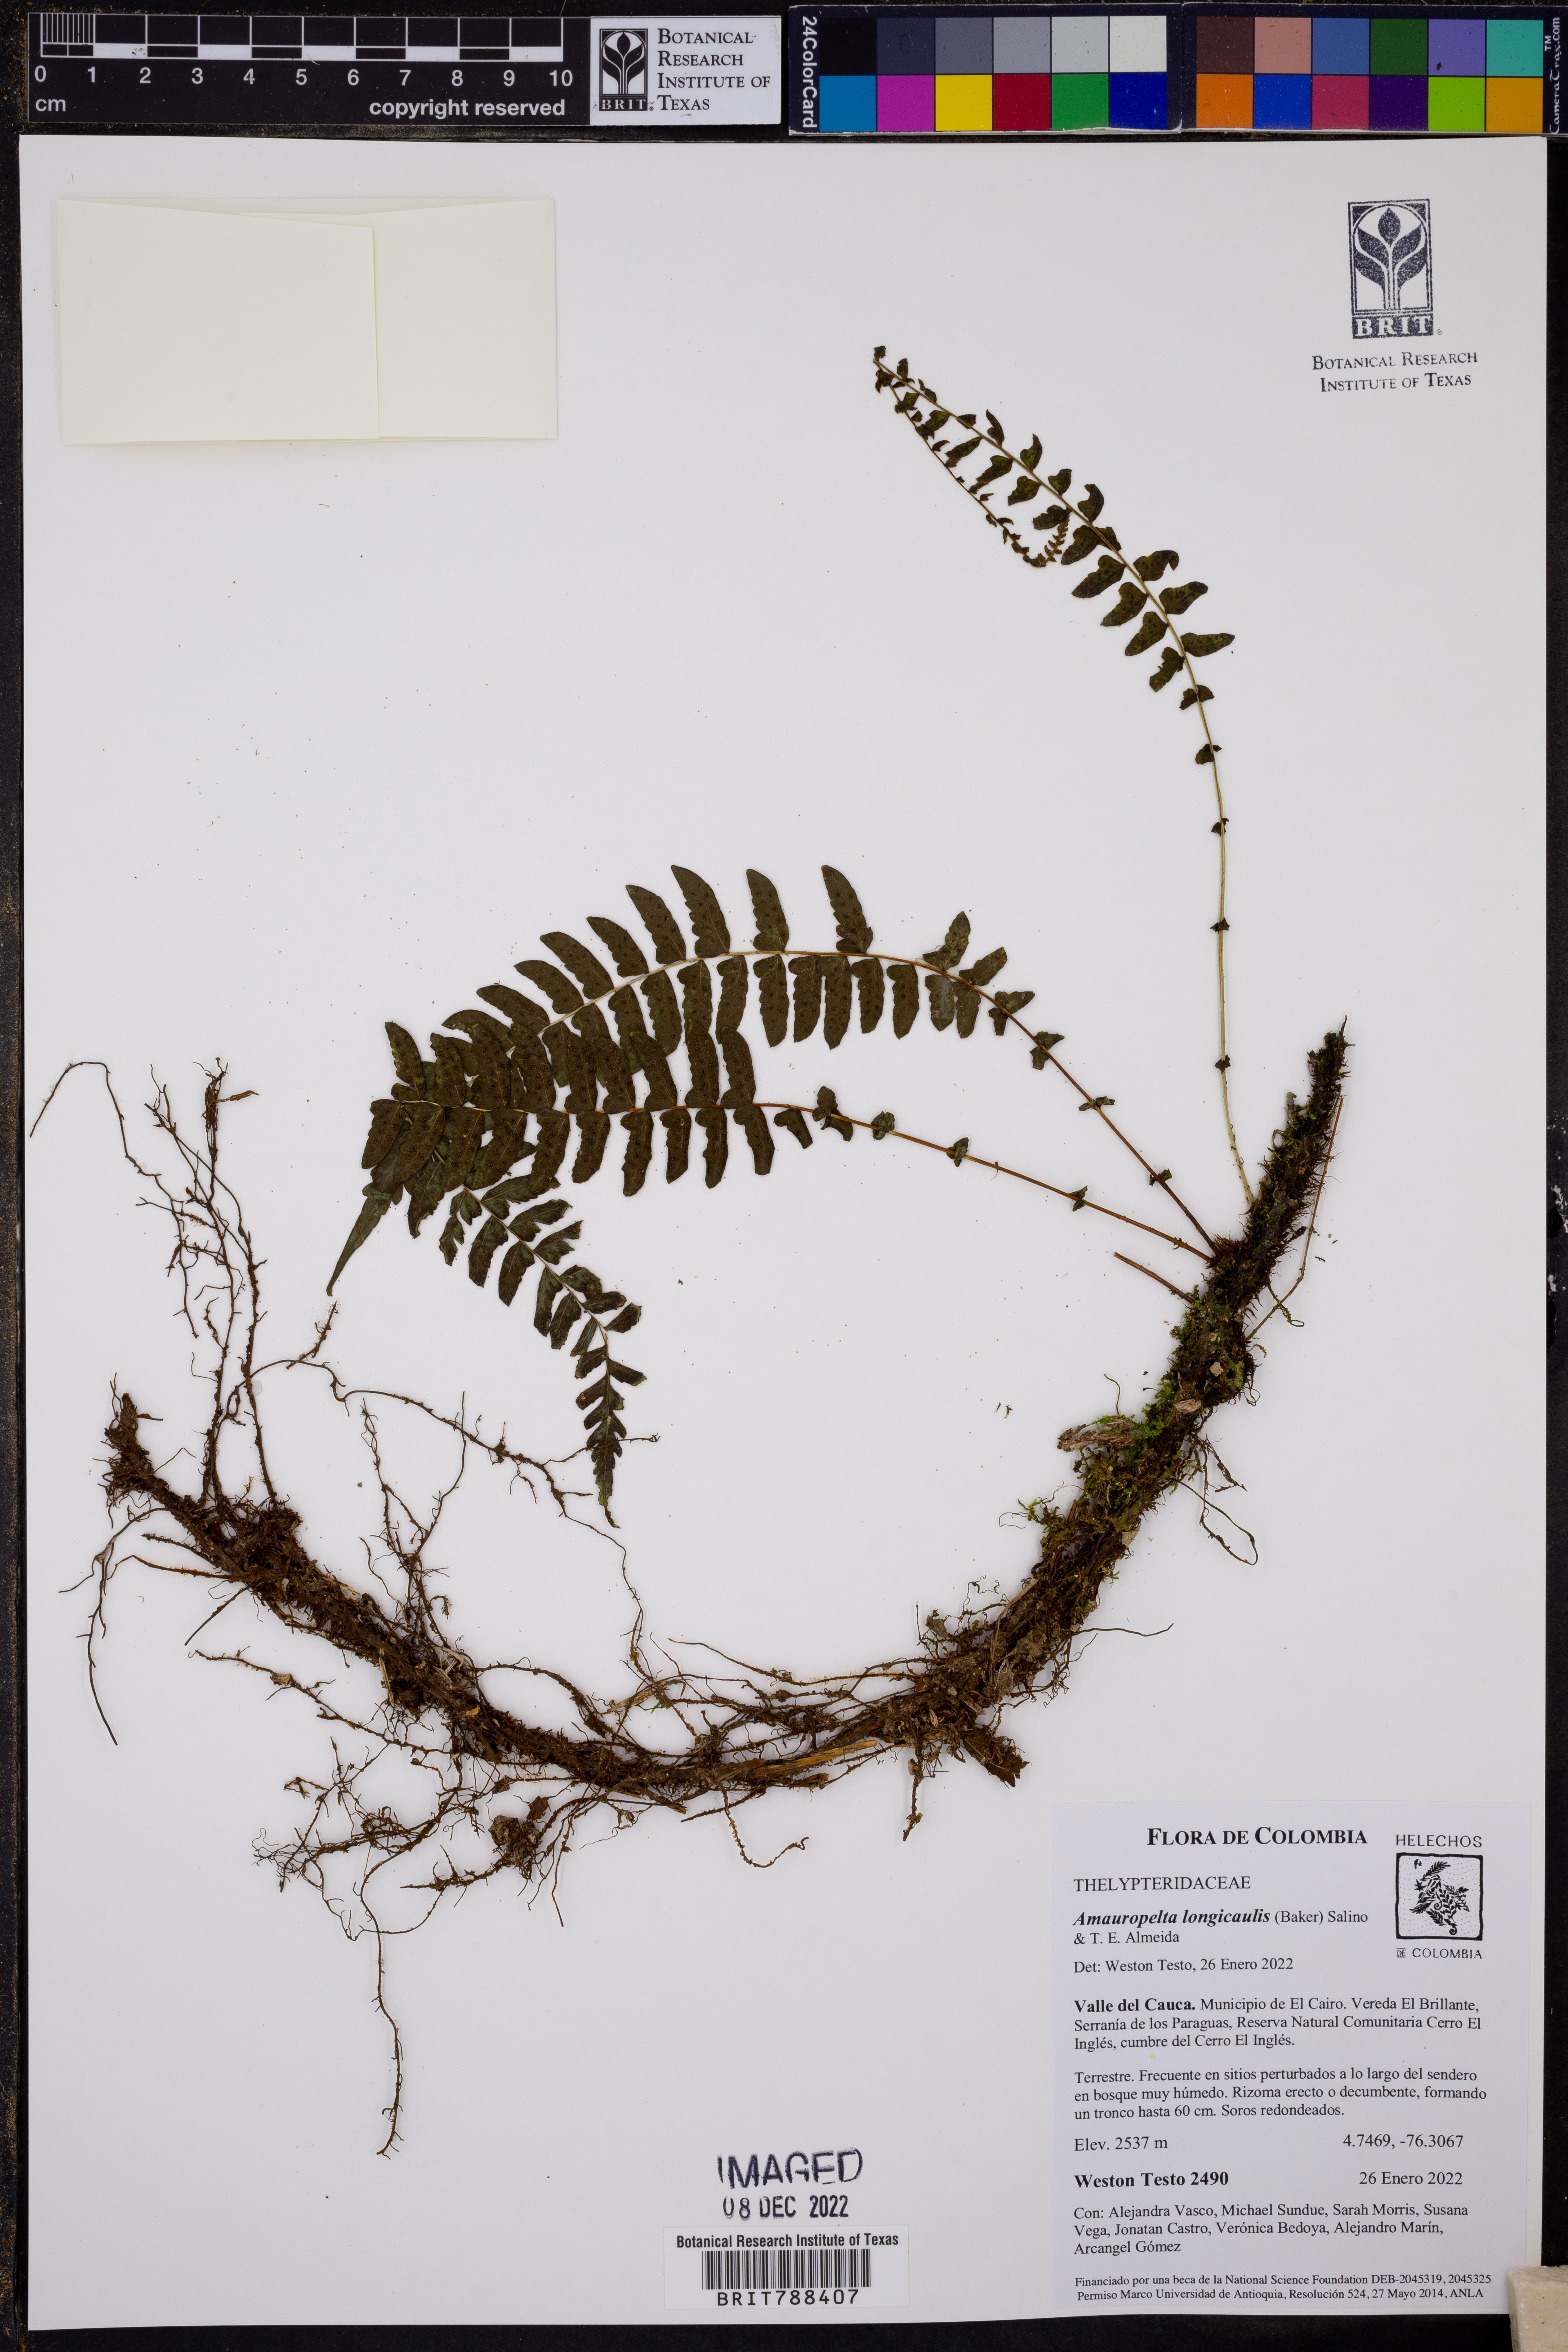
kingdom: Plantae
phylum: Tracheophyta
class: Polypodiopsida
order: Polypodiales
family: Thelypteridaceae
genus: Amauropelta
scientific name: Amauropelta longicaulis
